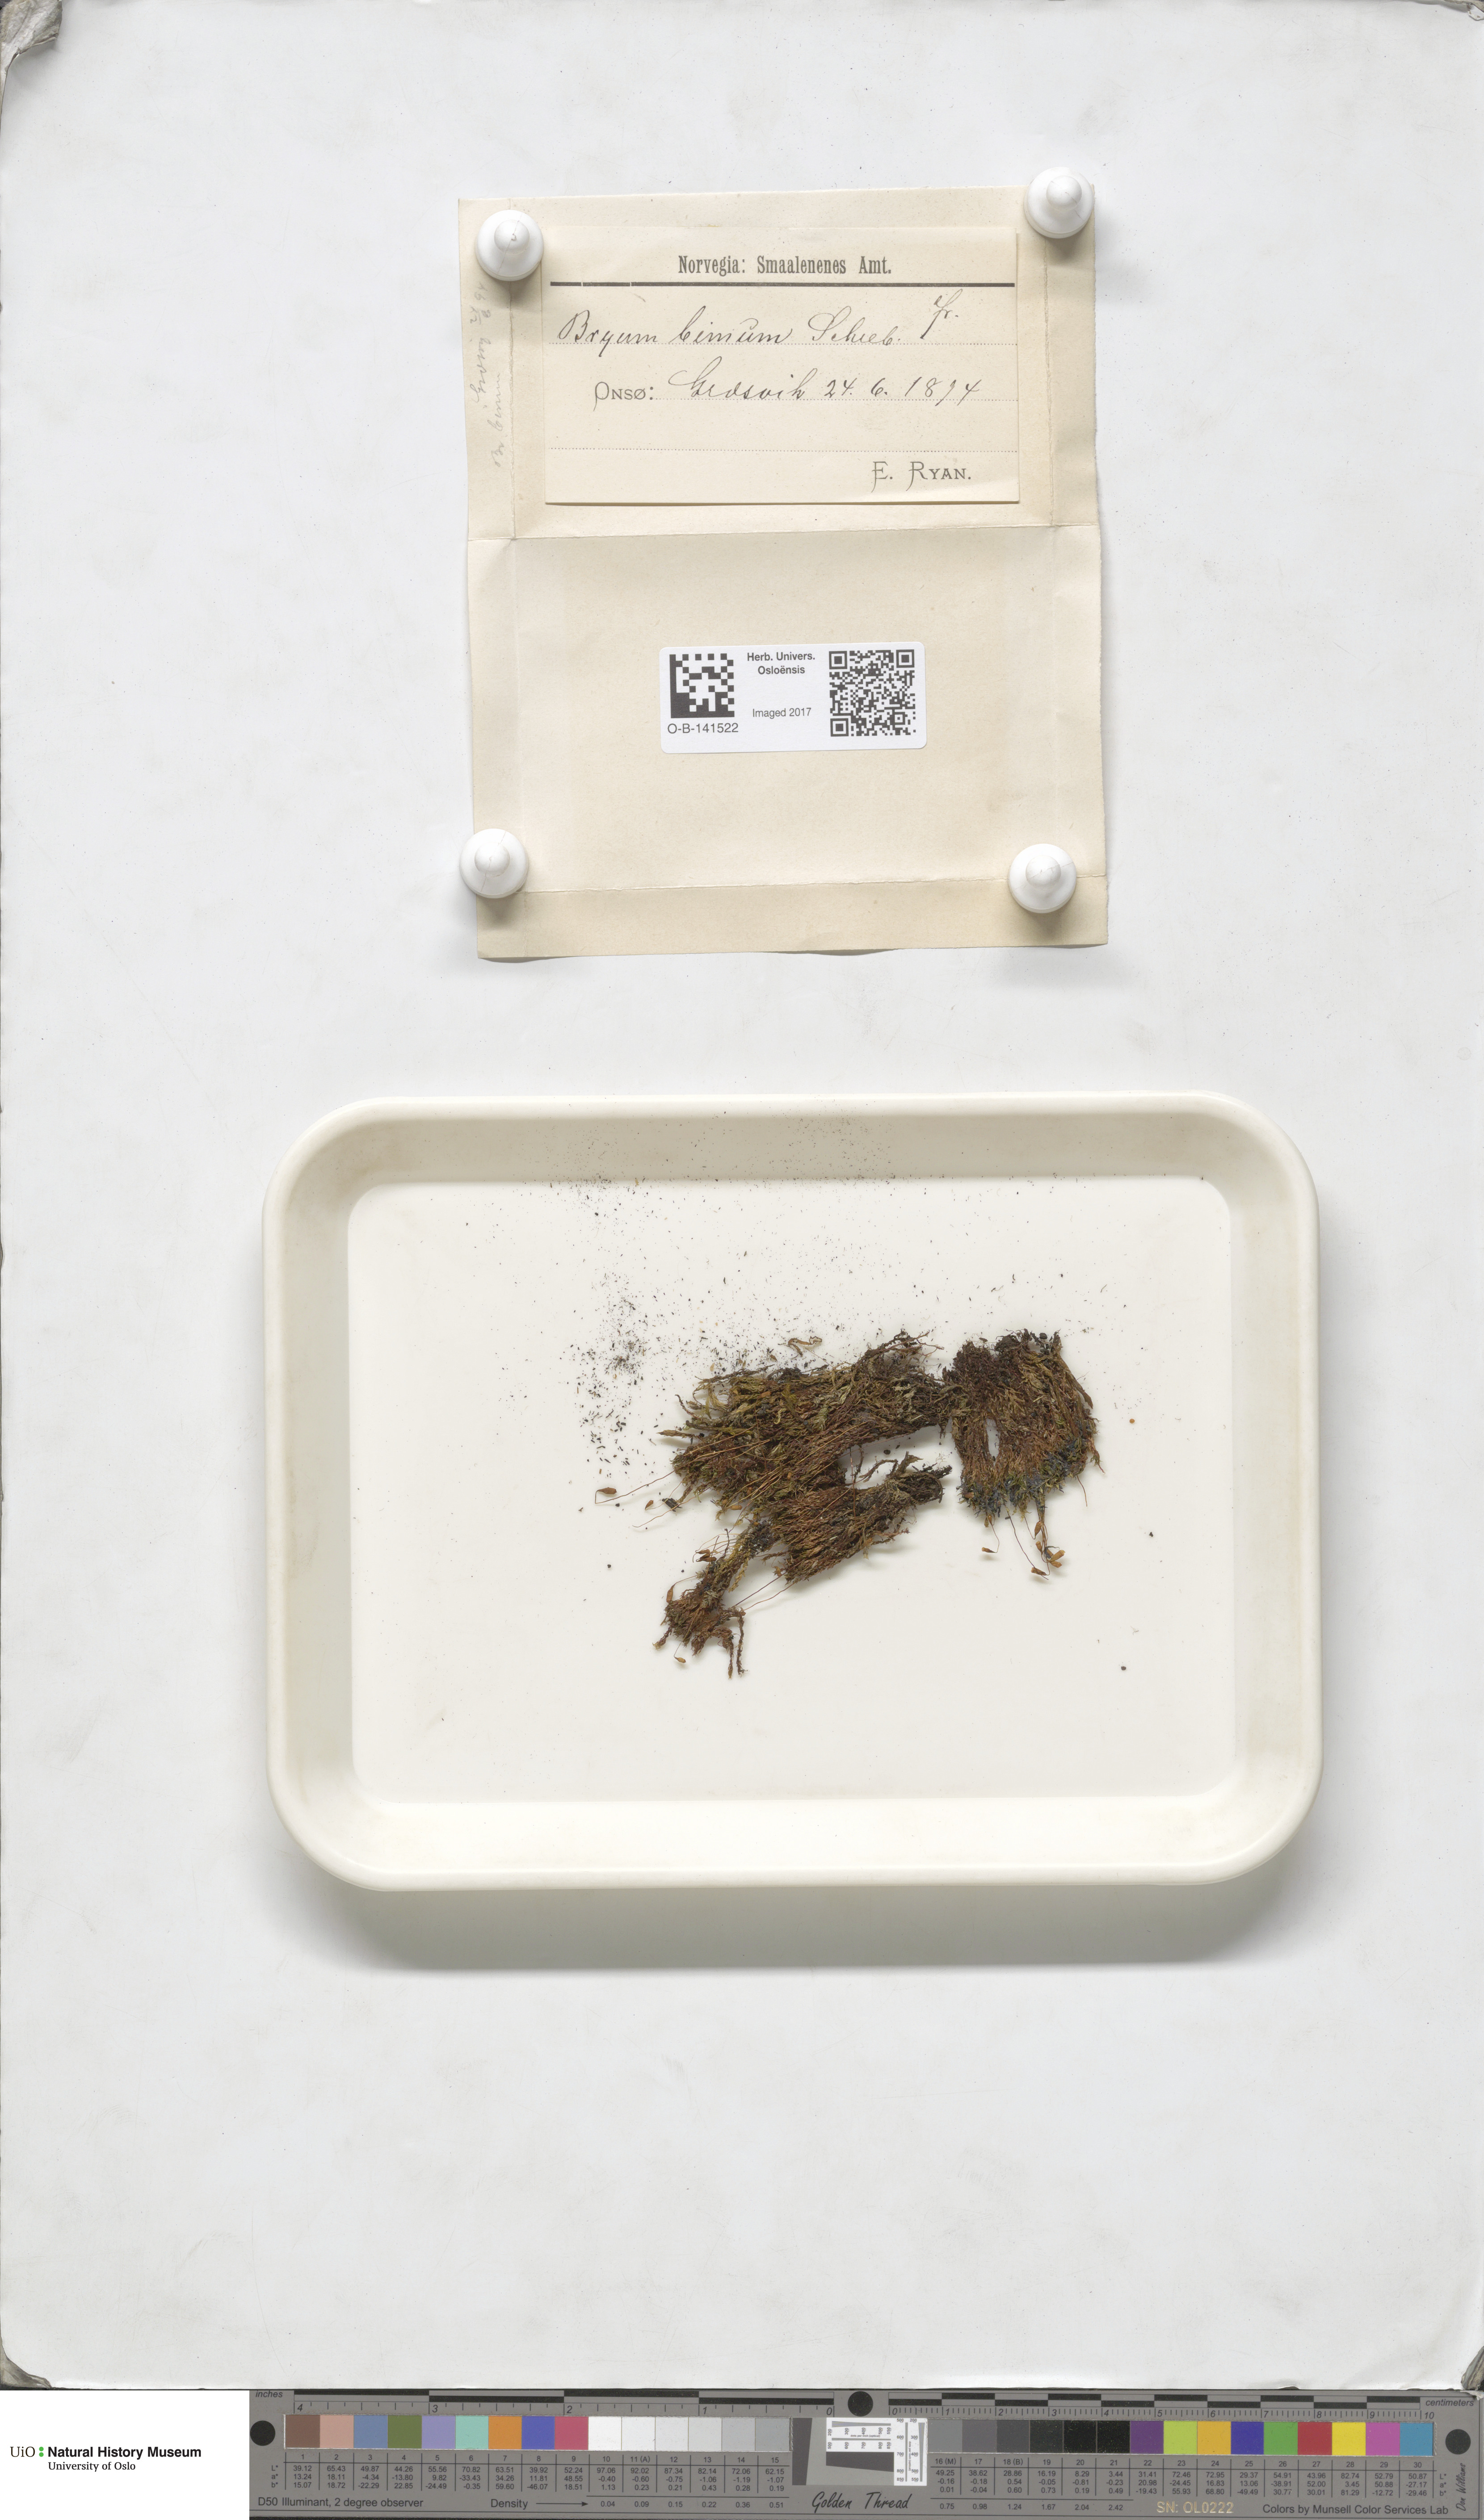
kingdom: Plantae
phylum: Bryophyta
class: Bryopsida
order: Bryales
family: Bryaceae
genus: Ptychostomum
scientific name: Ptychostomum bimum
